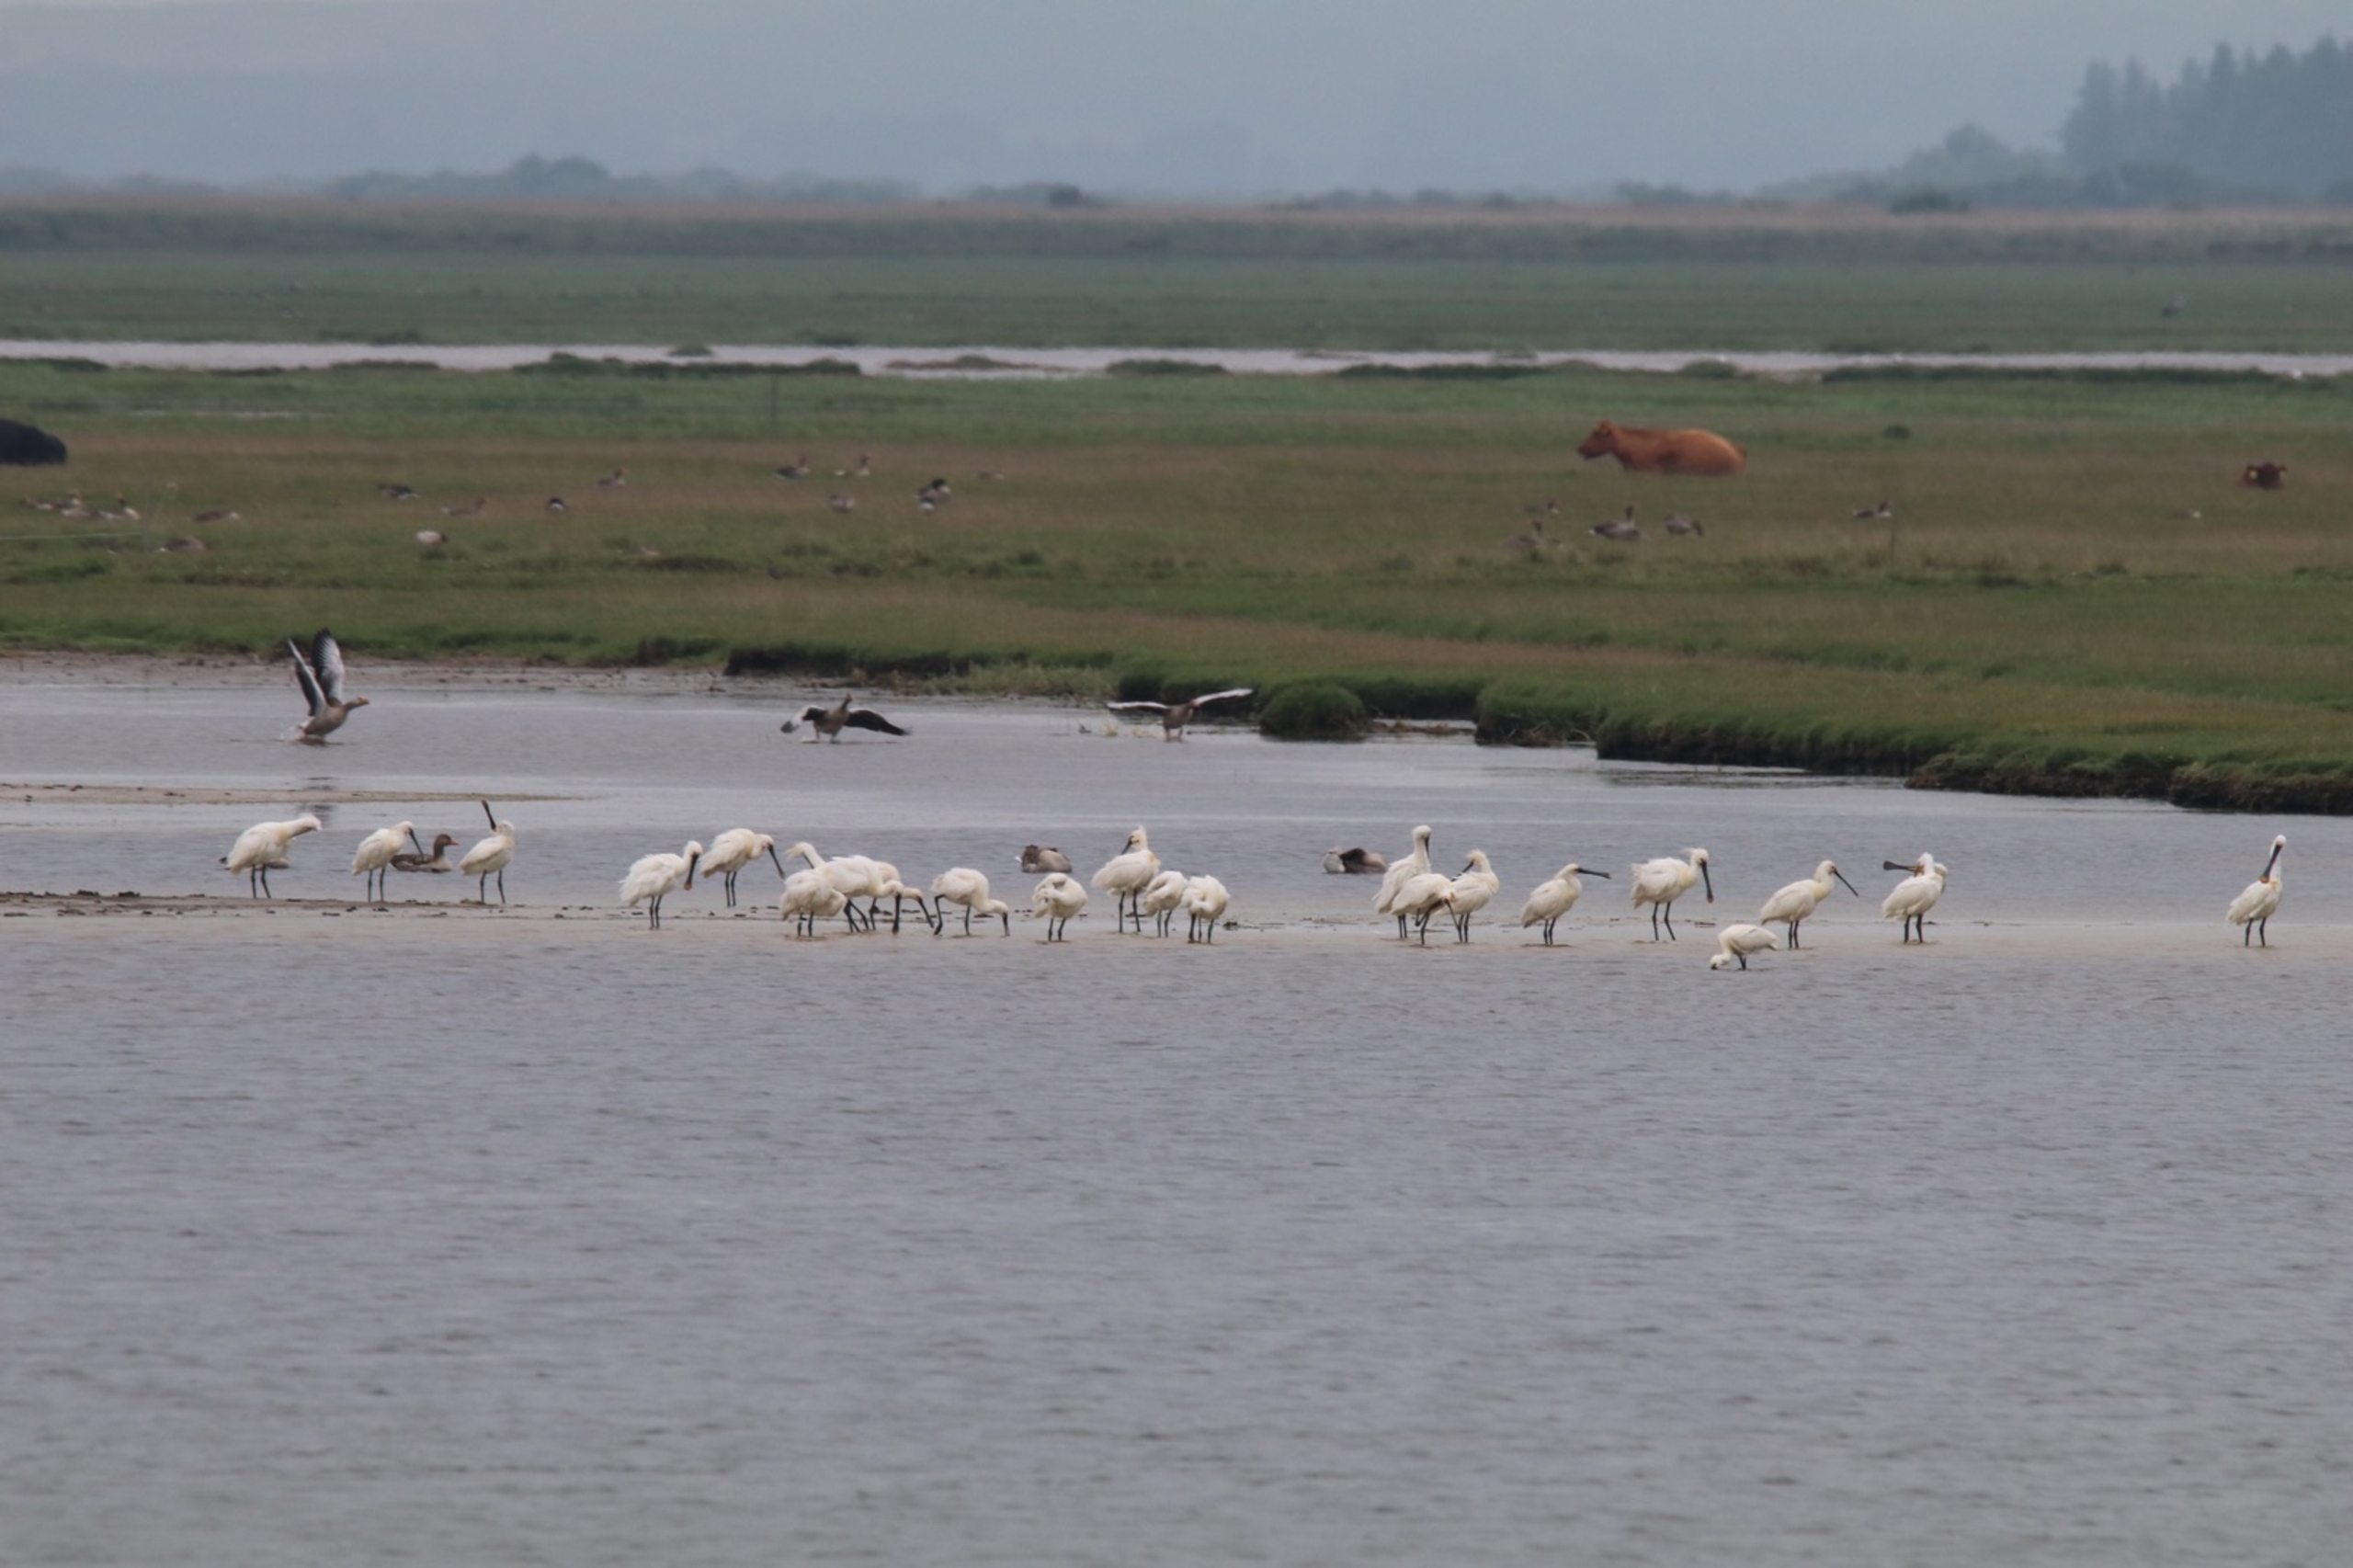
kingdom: Animalia
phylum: Chordata
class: Aves
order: Pelecaniformes
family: Threskiornithidae
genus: Platalea
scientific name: Platalea leucorodia
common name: Skestork
